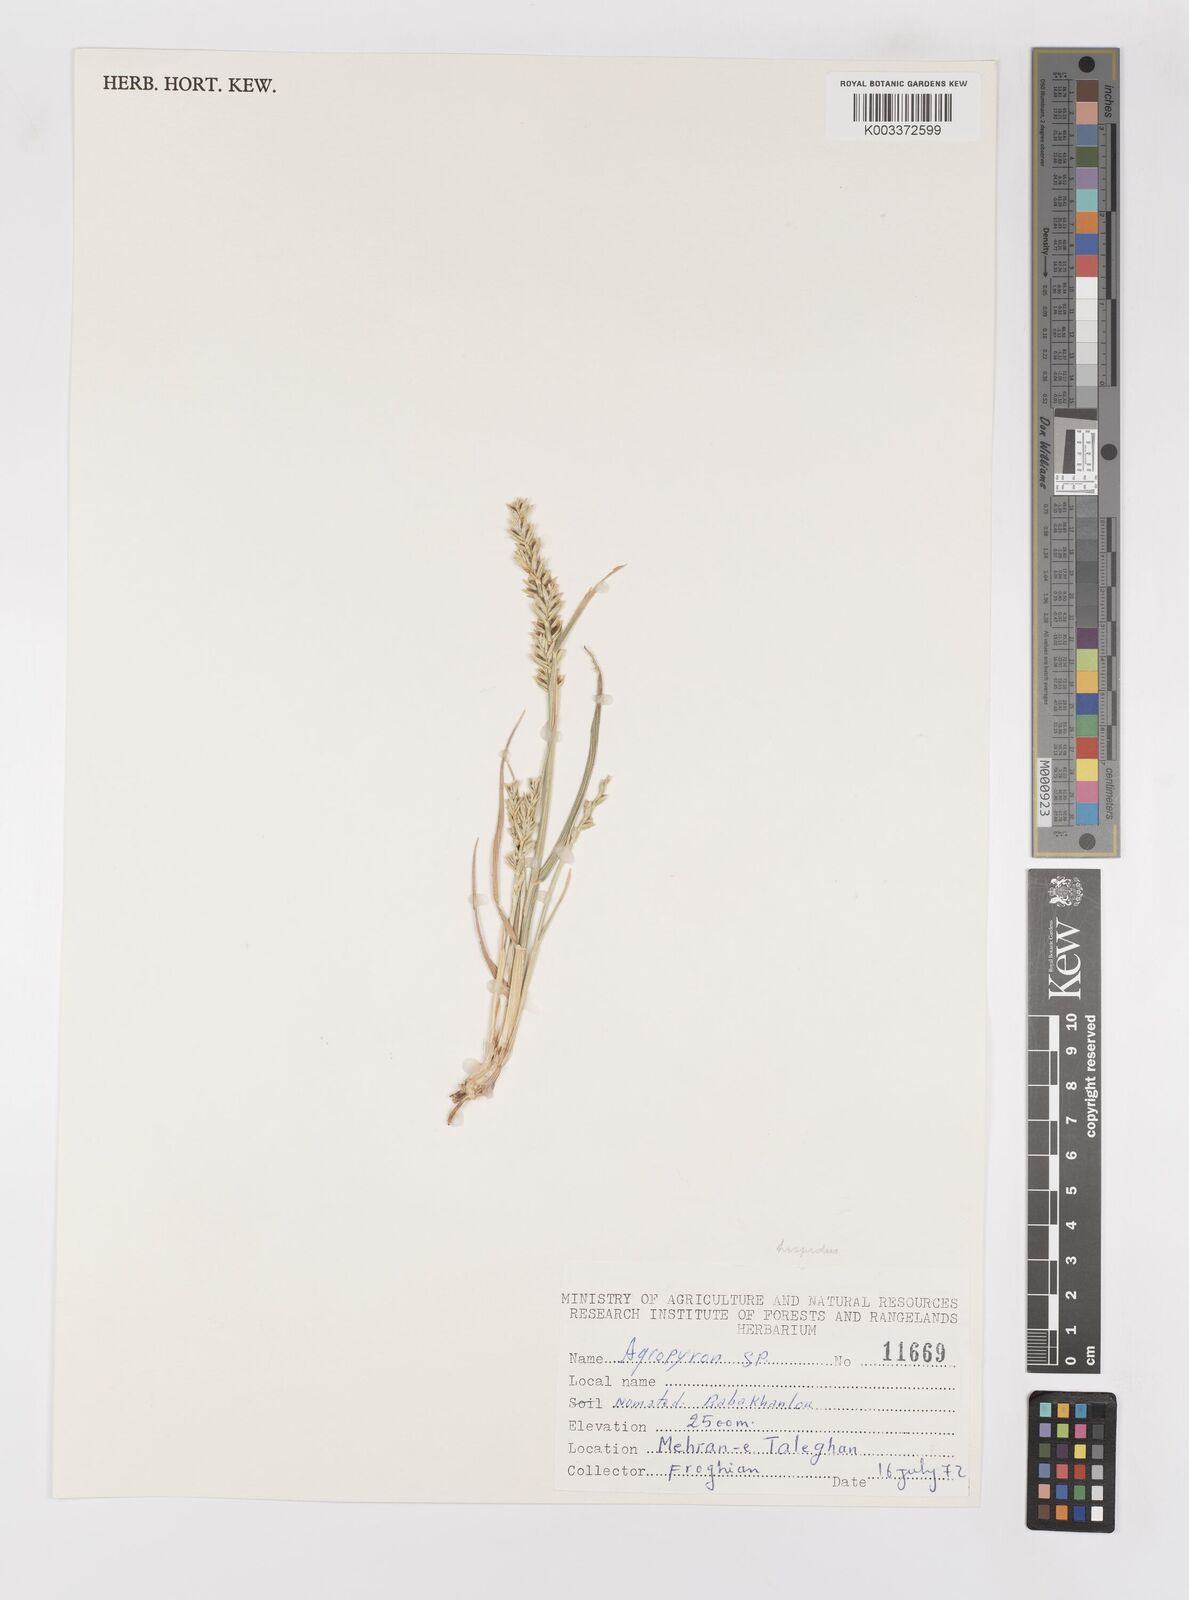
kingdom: Plantae
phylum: Tracheophyta
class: Liliopsida
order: Poales
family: Poaceae
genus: Elymus
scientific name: Elymus
